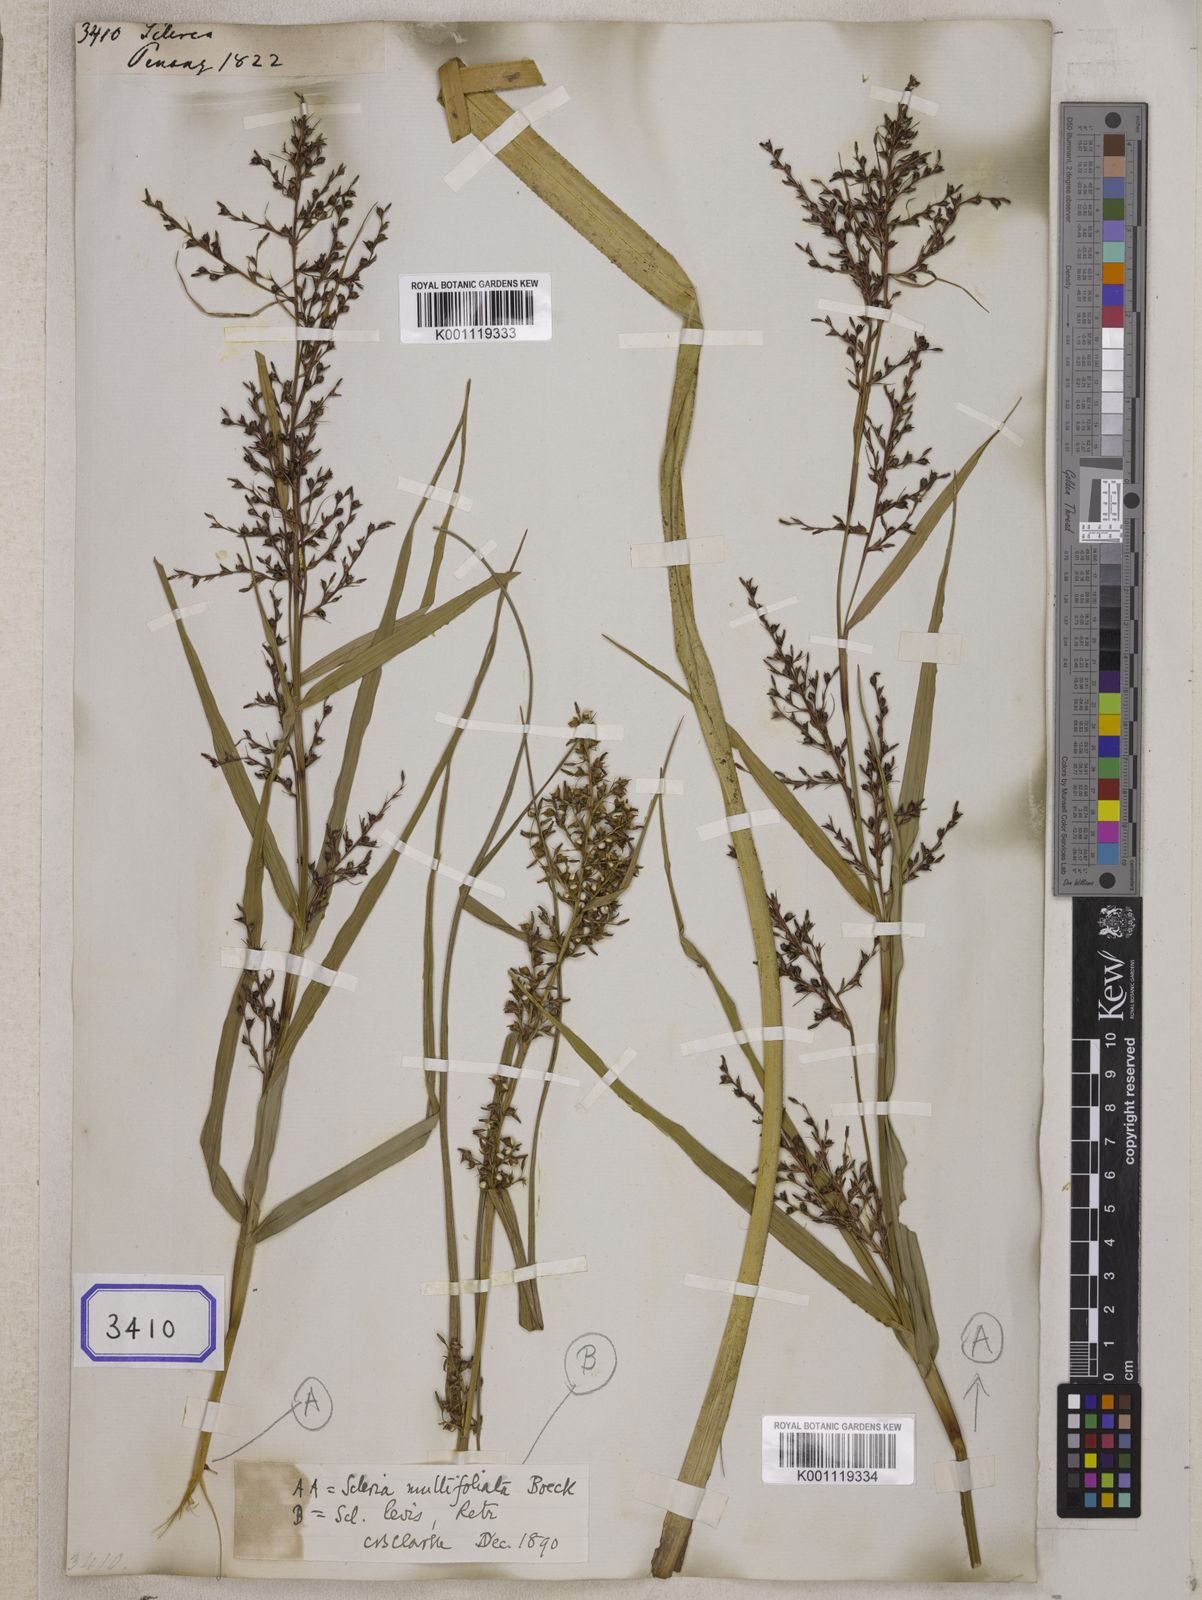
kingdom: Plantae
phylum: Tracheophyta
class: Liliopsida
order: Poales
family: Cyperaceae
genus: Scleria
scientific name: Scleria
